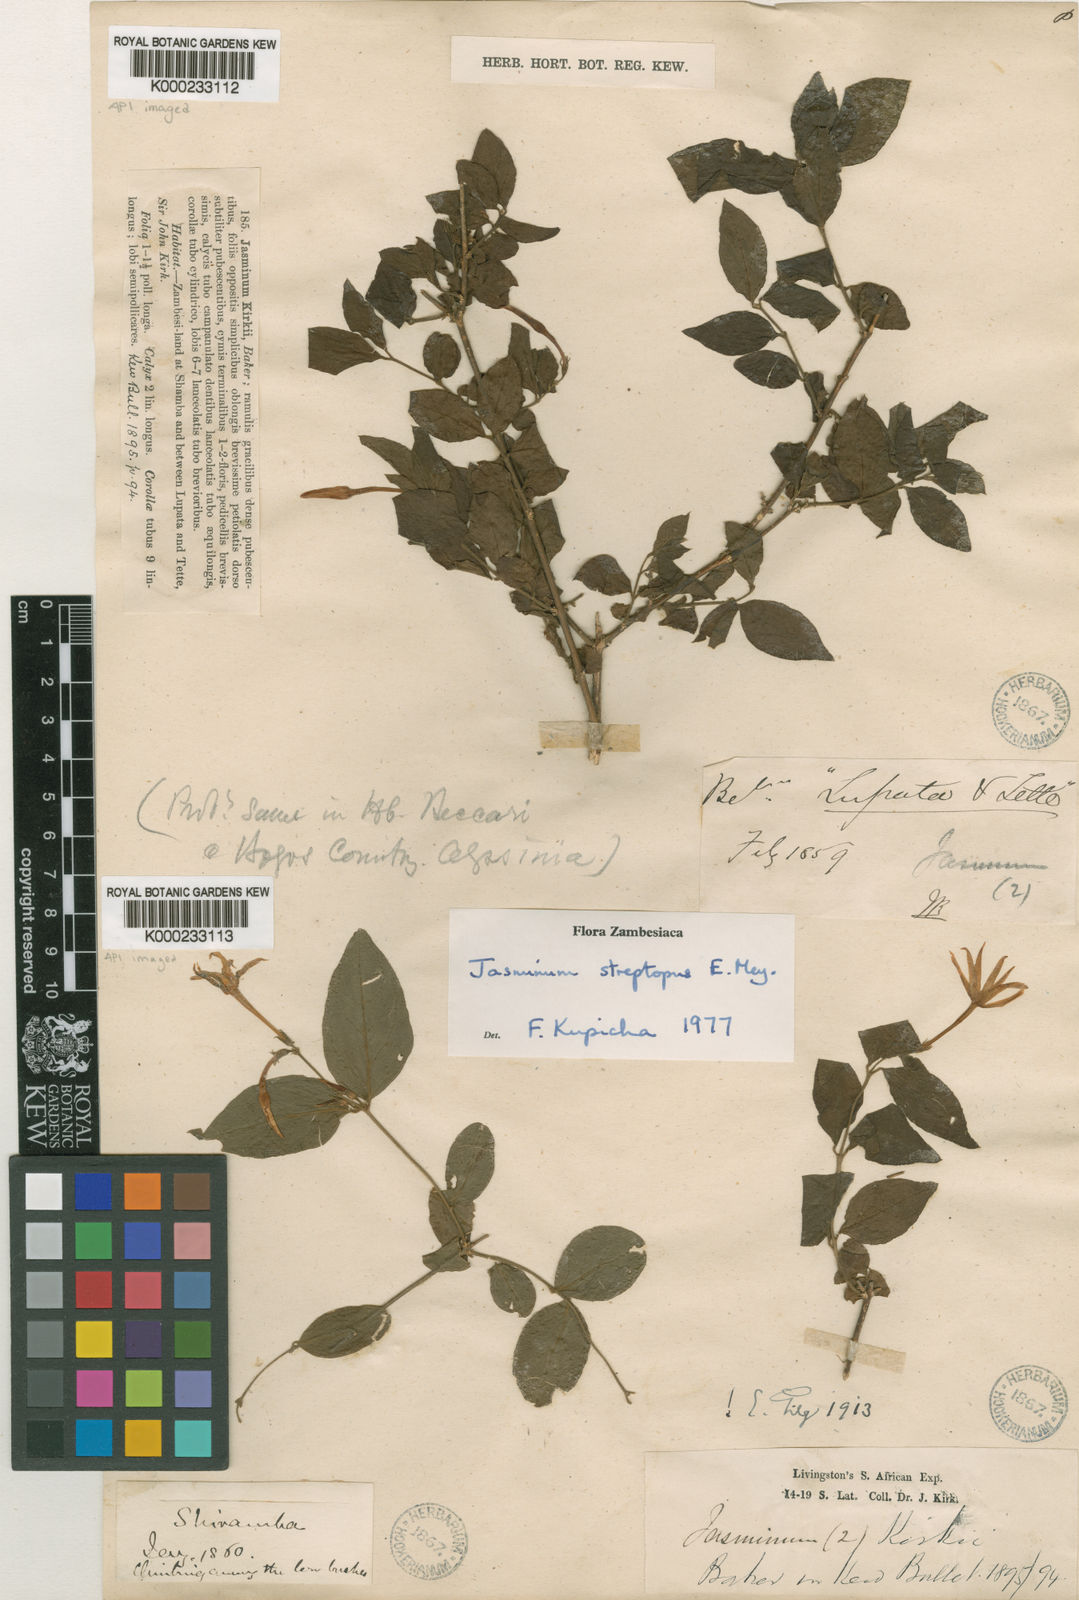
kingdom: Plantae
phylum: Tracheophyta
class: Magnoliopsida
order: Lamiales
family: Oleaceae
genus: Jasminum
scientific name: Jasminum
